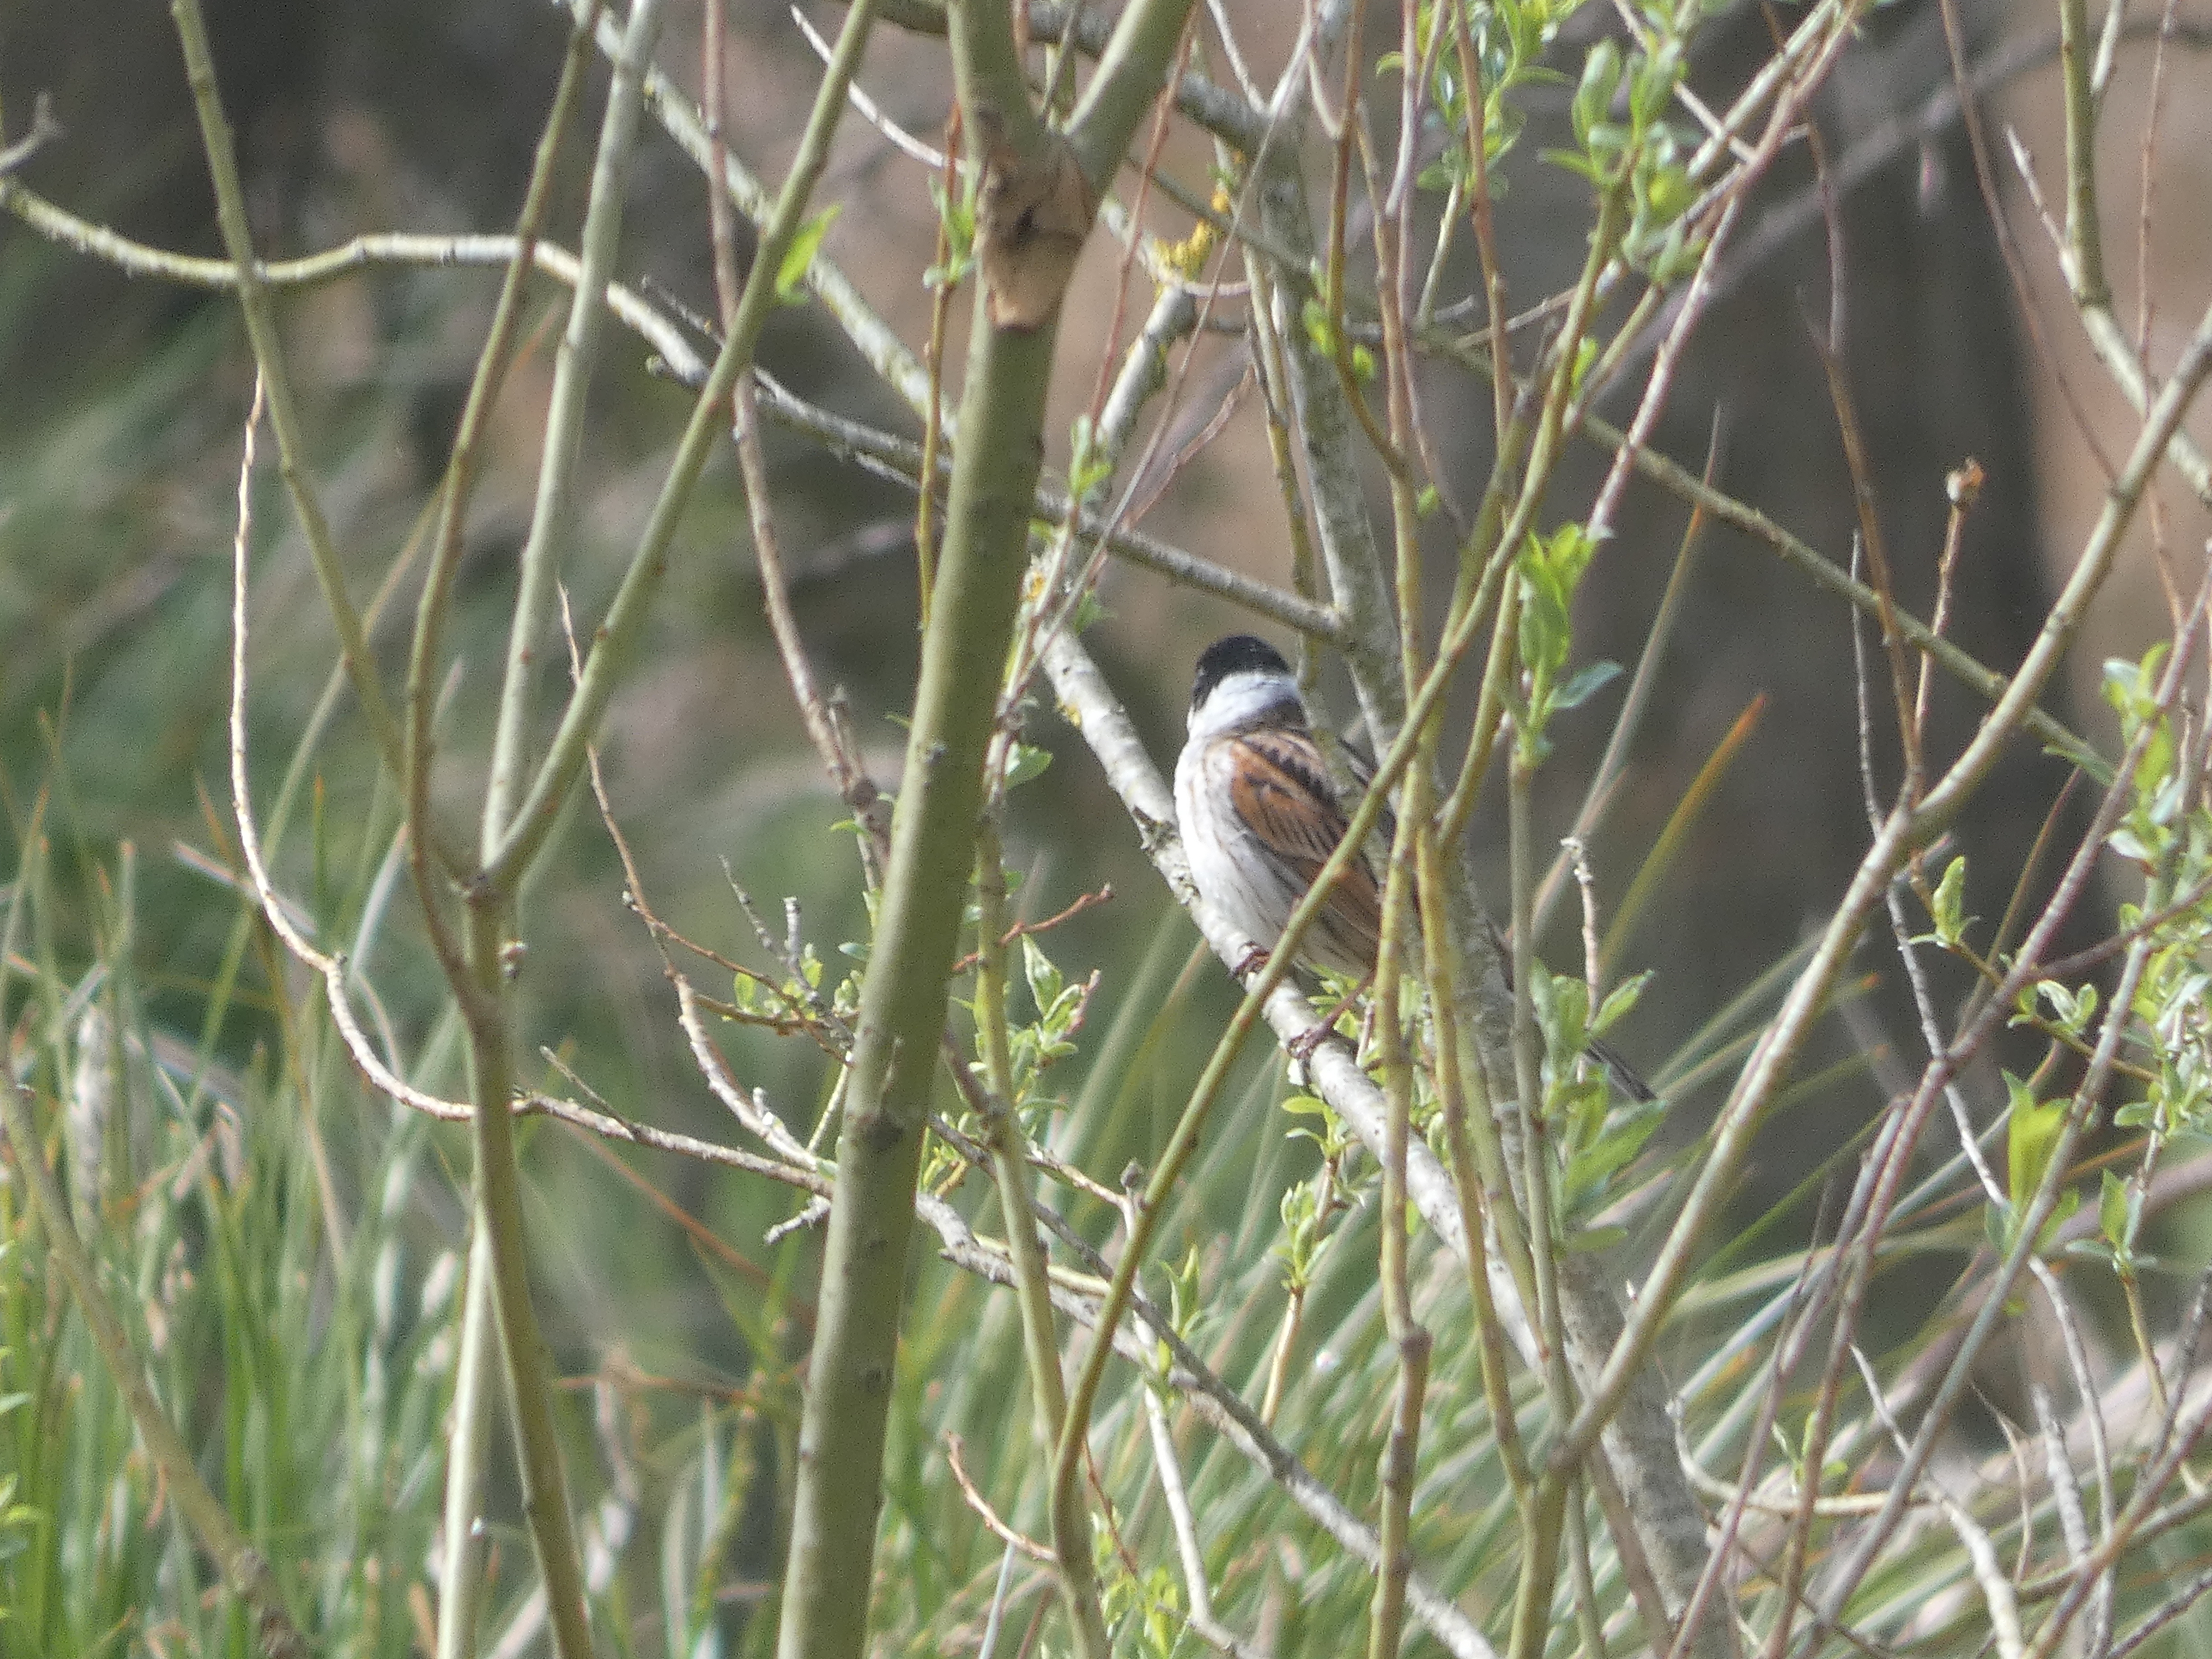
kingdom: Animalia
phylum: Chordata
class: Aves
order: Passeriformes
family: Emberizidae
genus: Emberiza
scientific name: Emberiza schoeniclus
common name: Rørspurv
